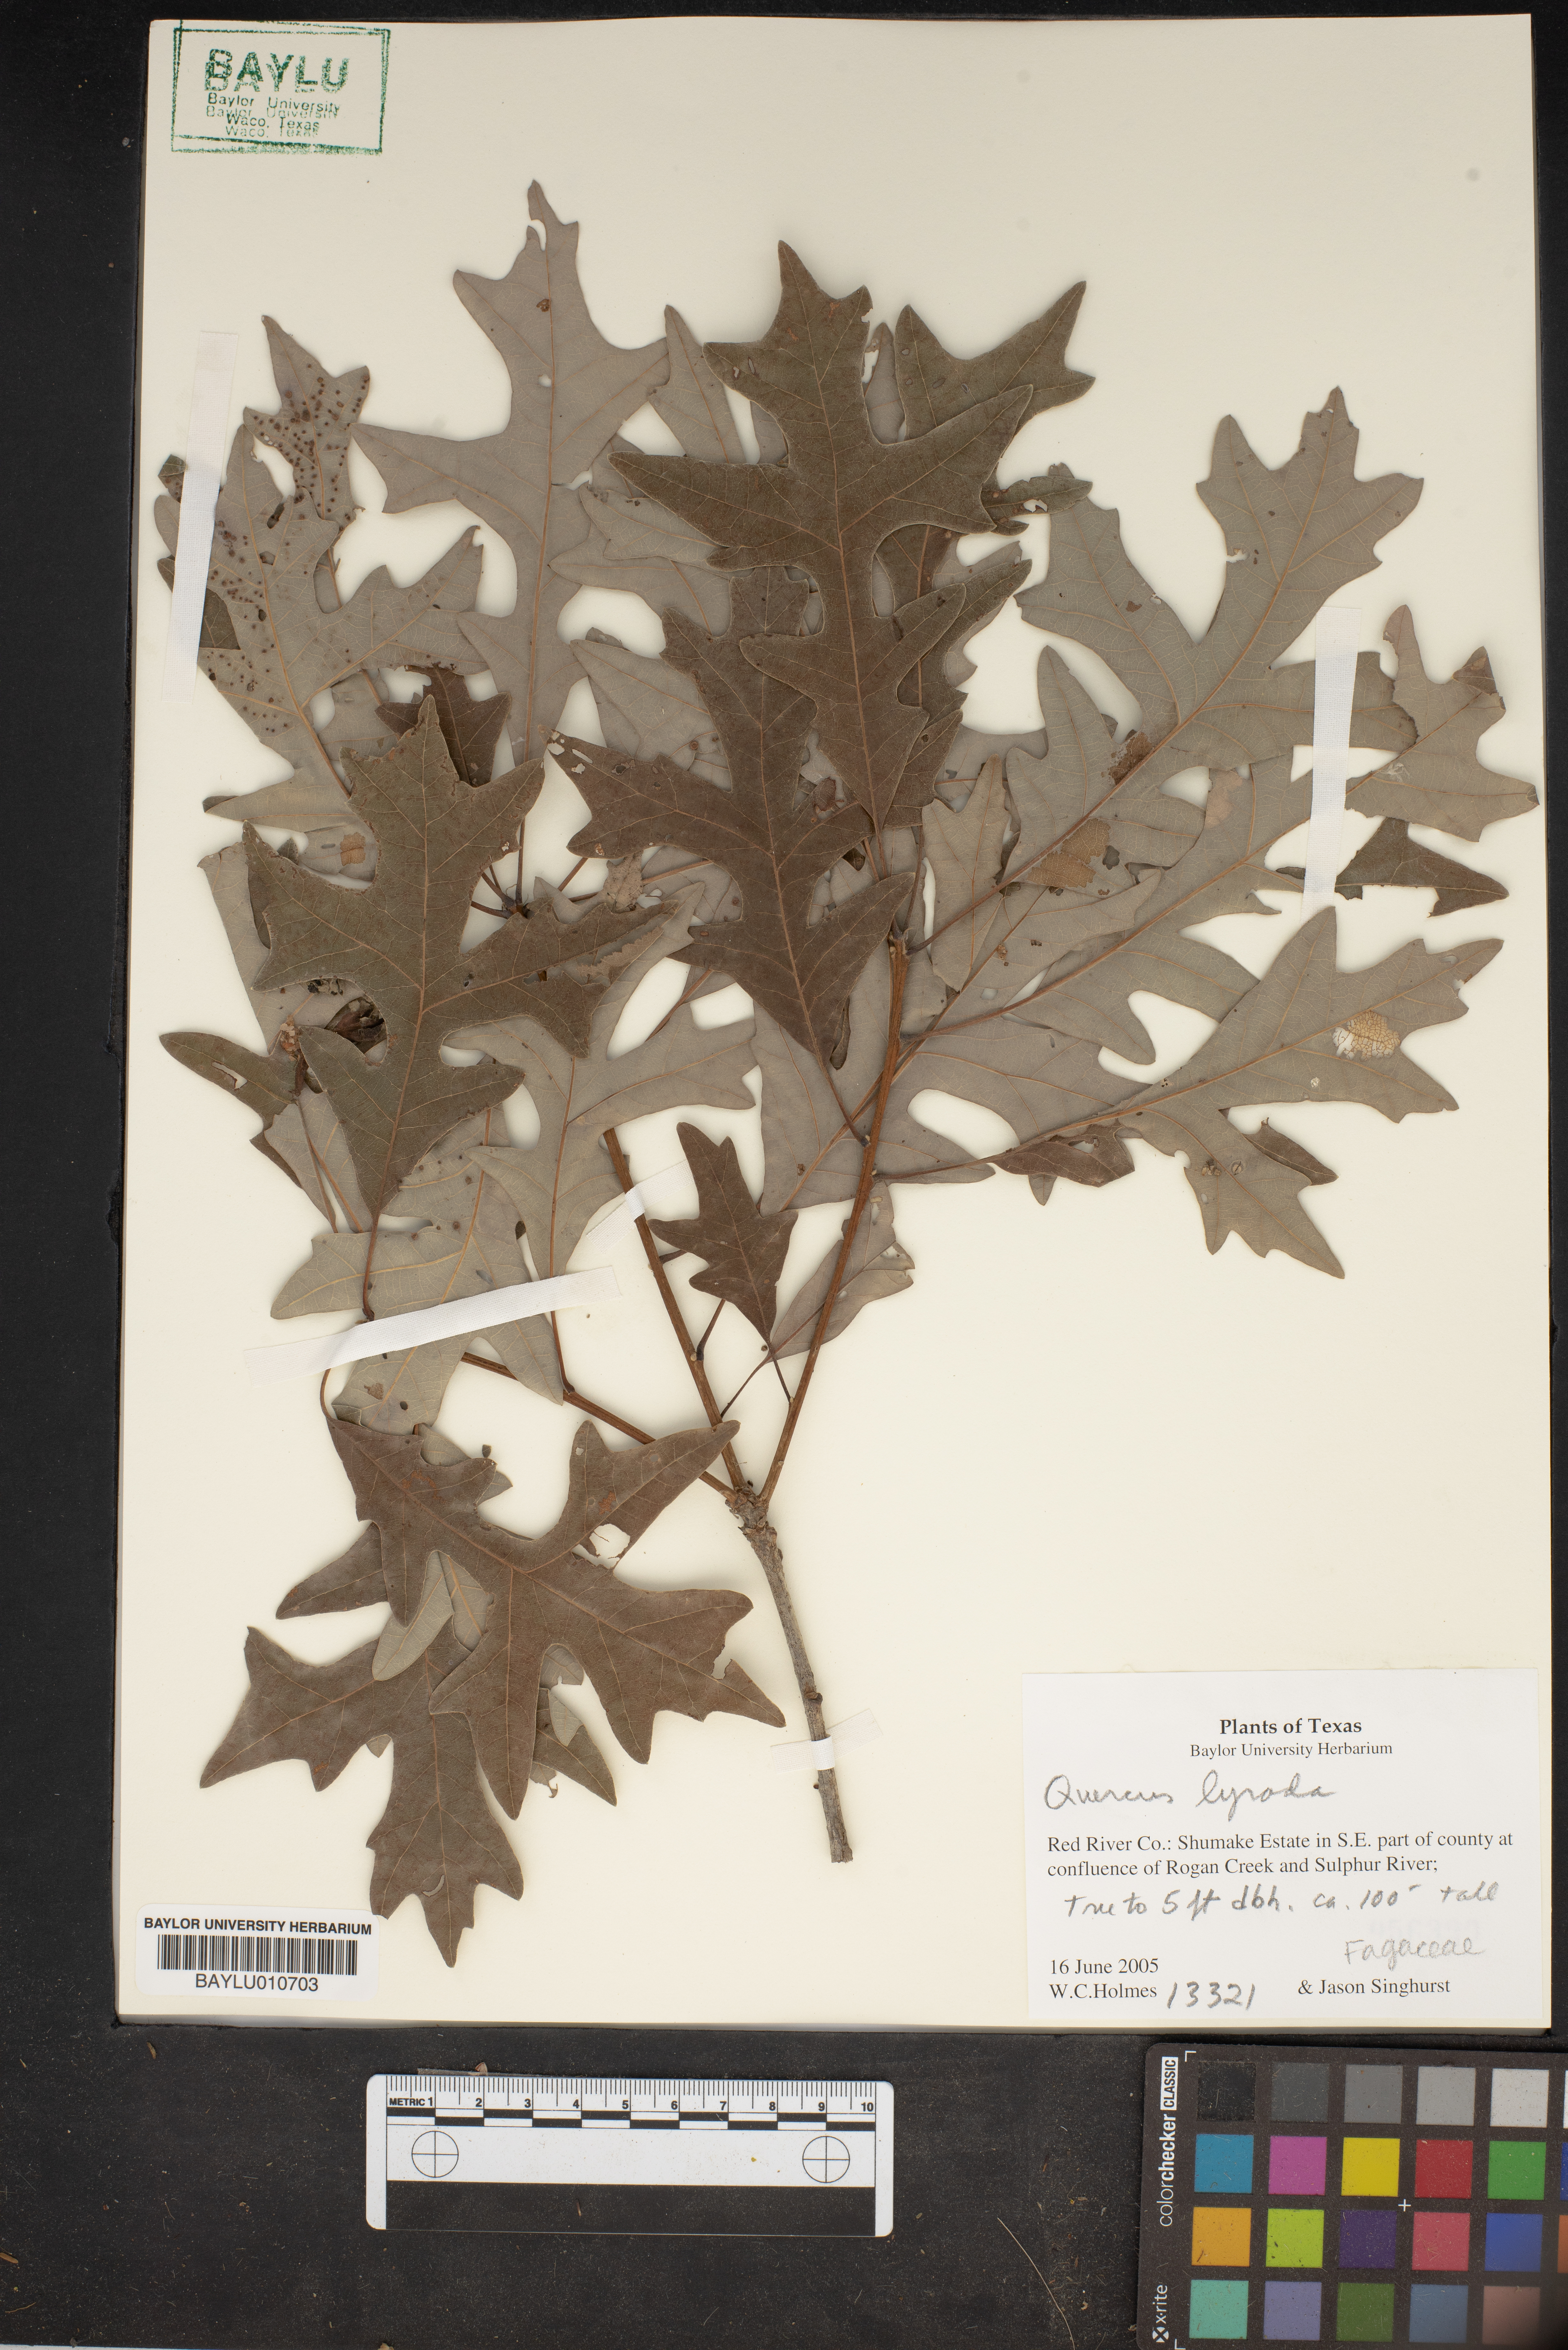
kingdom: Plantae
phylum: Tracheophyta
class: Magnoliopsida
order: Fagales
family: Fagaceae
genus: Quercus
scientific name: Quercus lyrata
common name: Overcup oak
